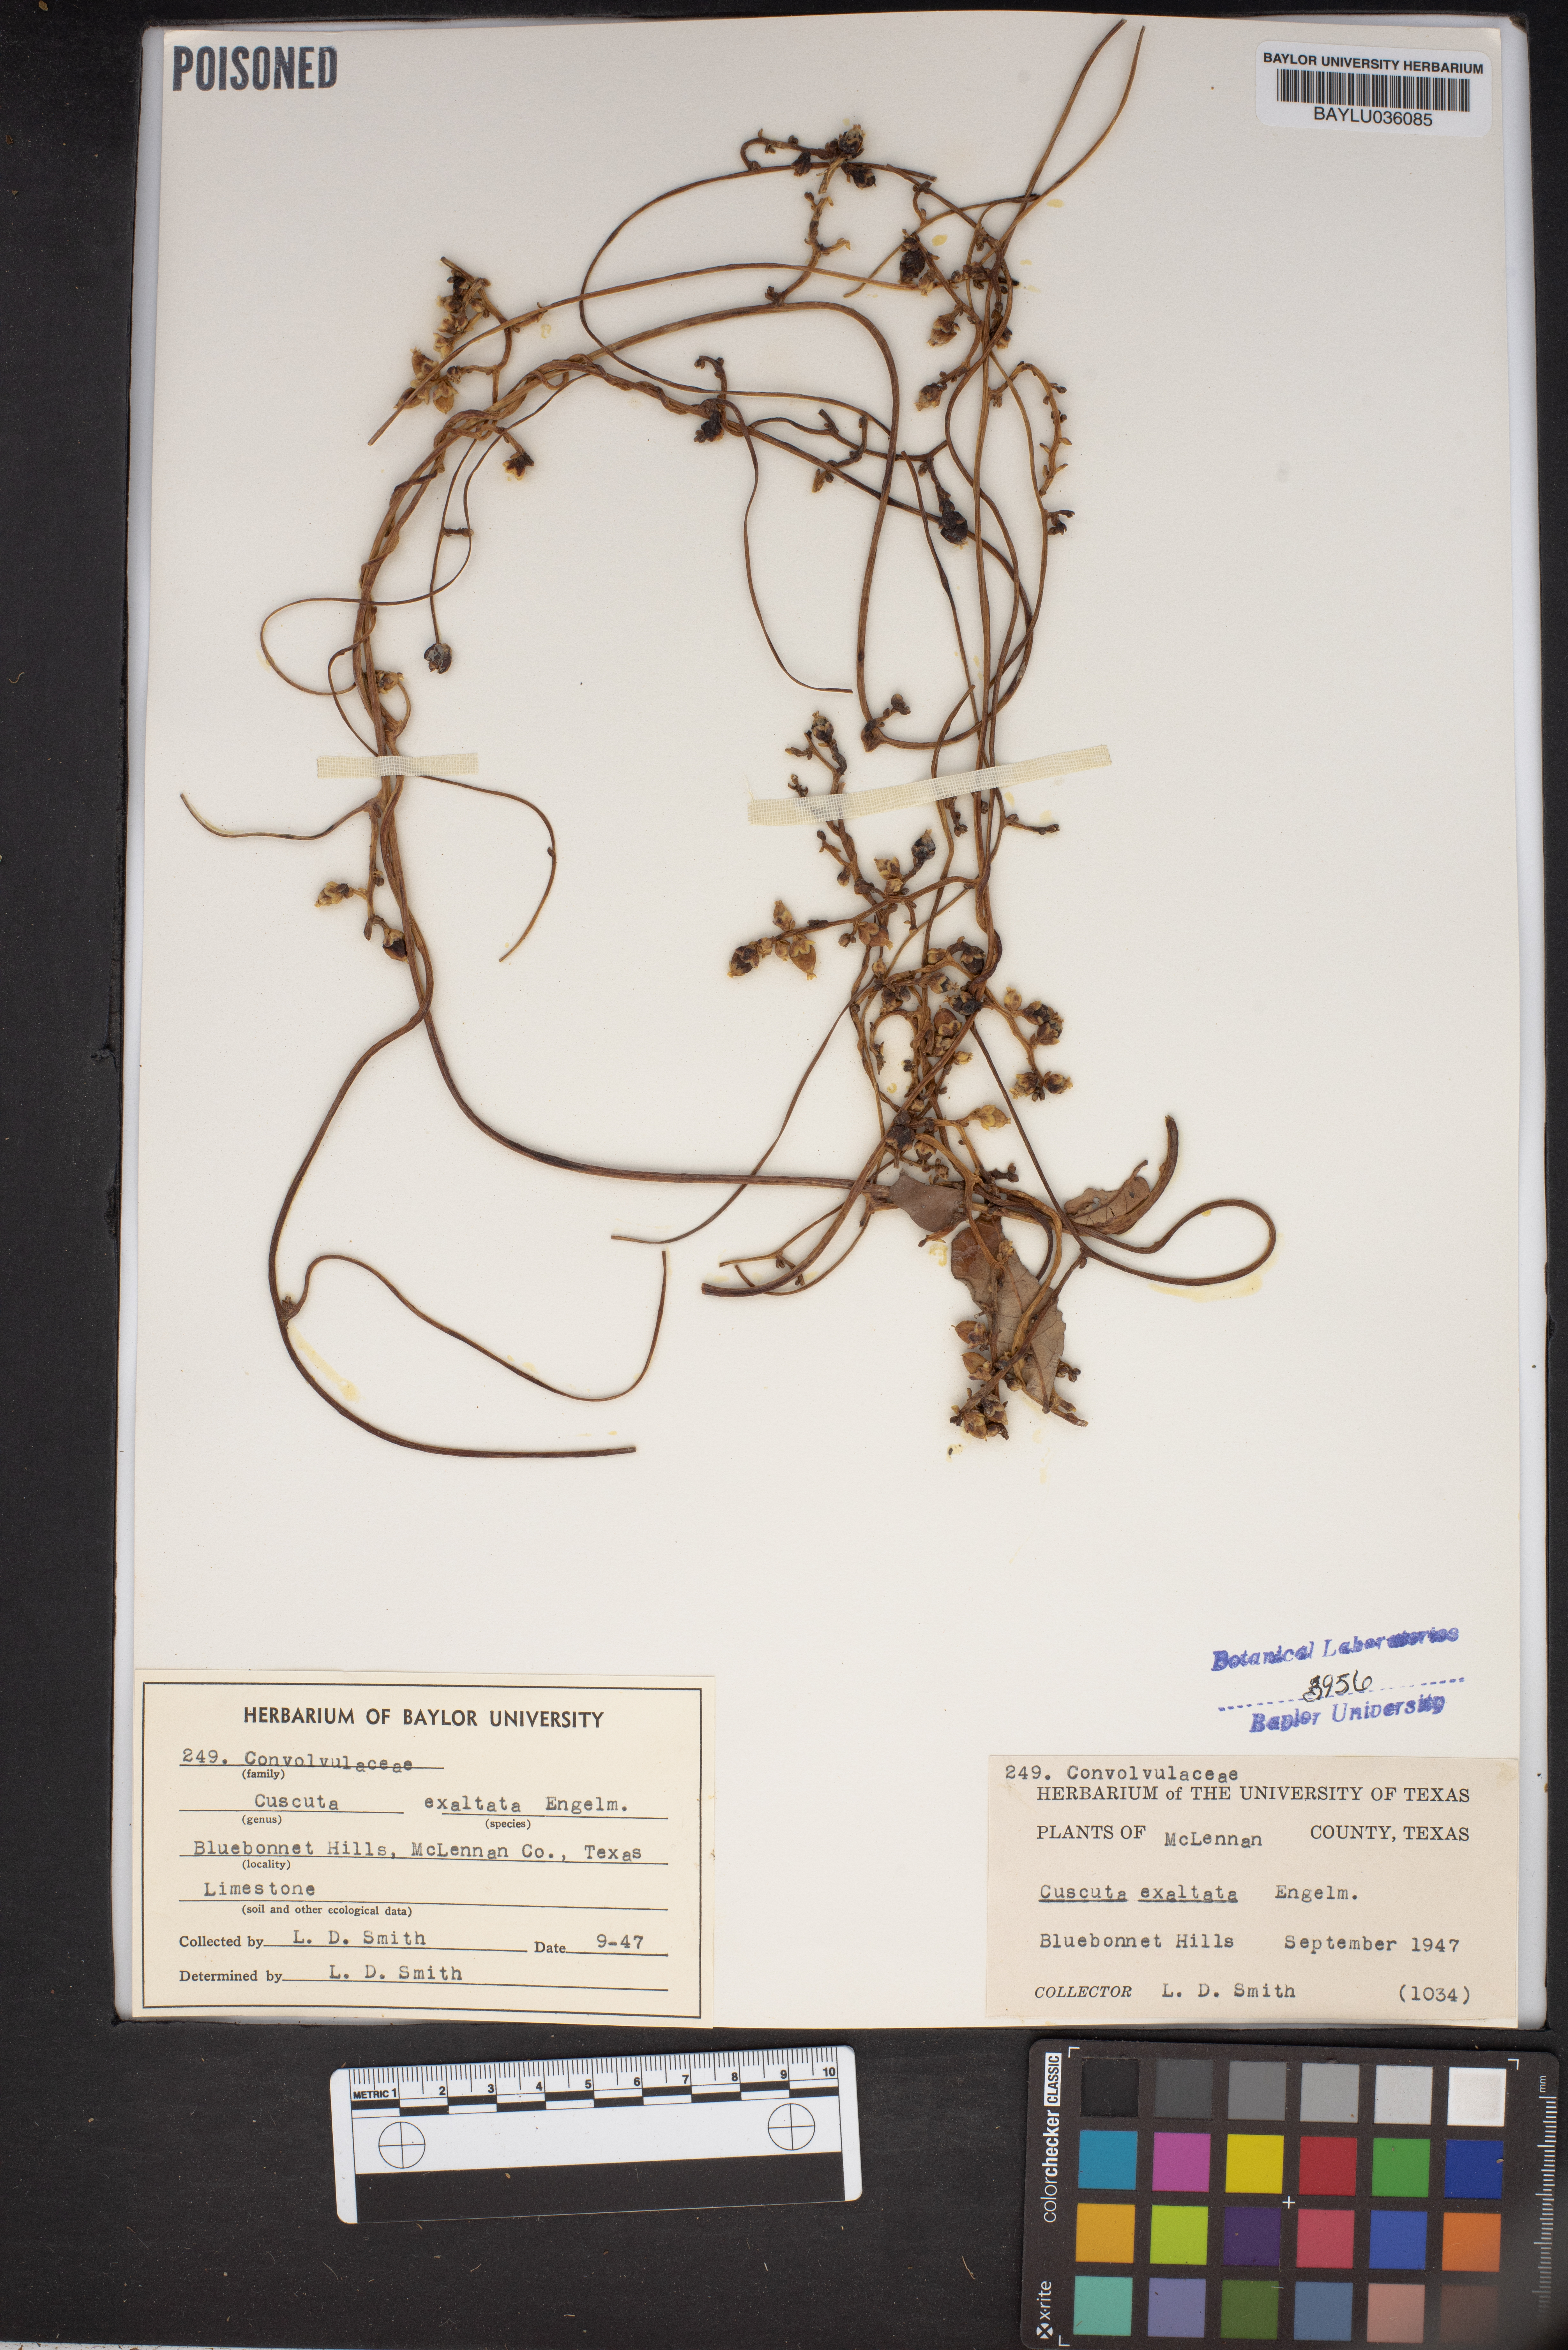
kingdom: Plantae
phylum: Tracheophyta
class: Magnoliopsida
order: Solanales
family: Convolvulaceae
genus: Cuscuta
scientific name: Cuscuta exaltata
